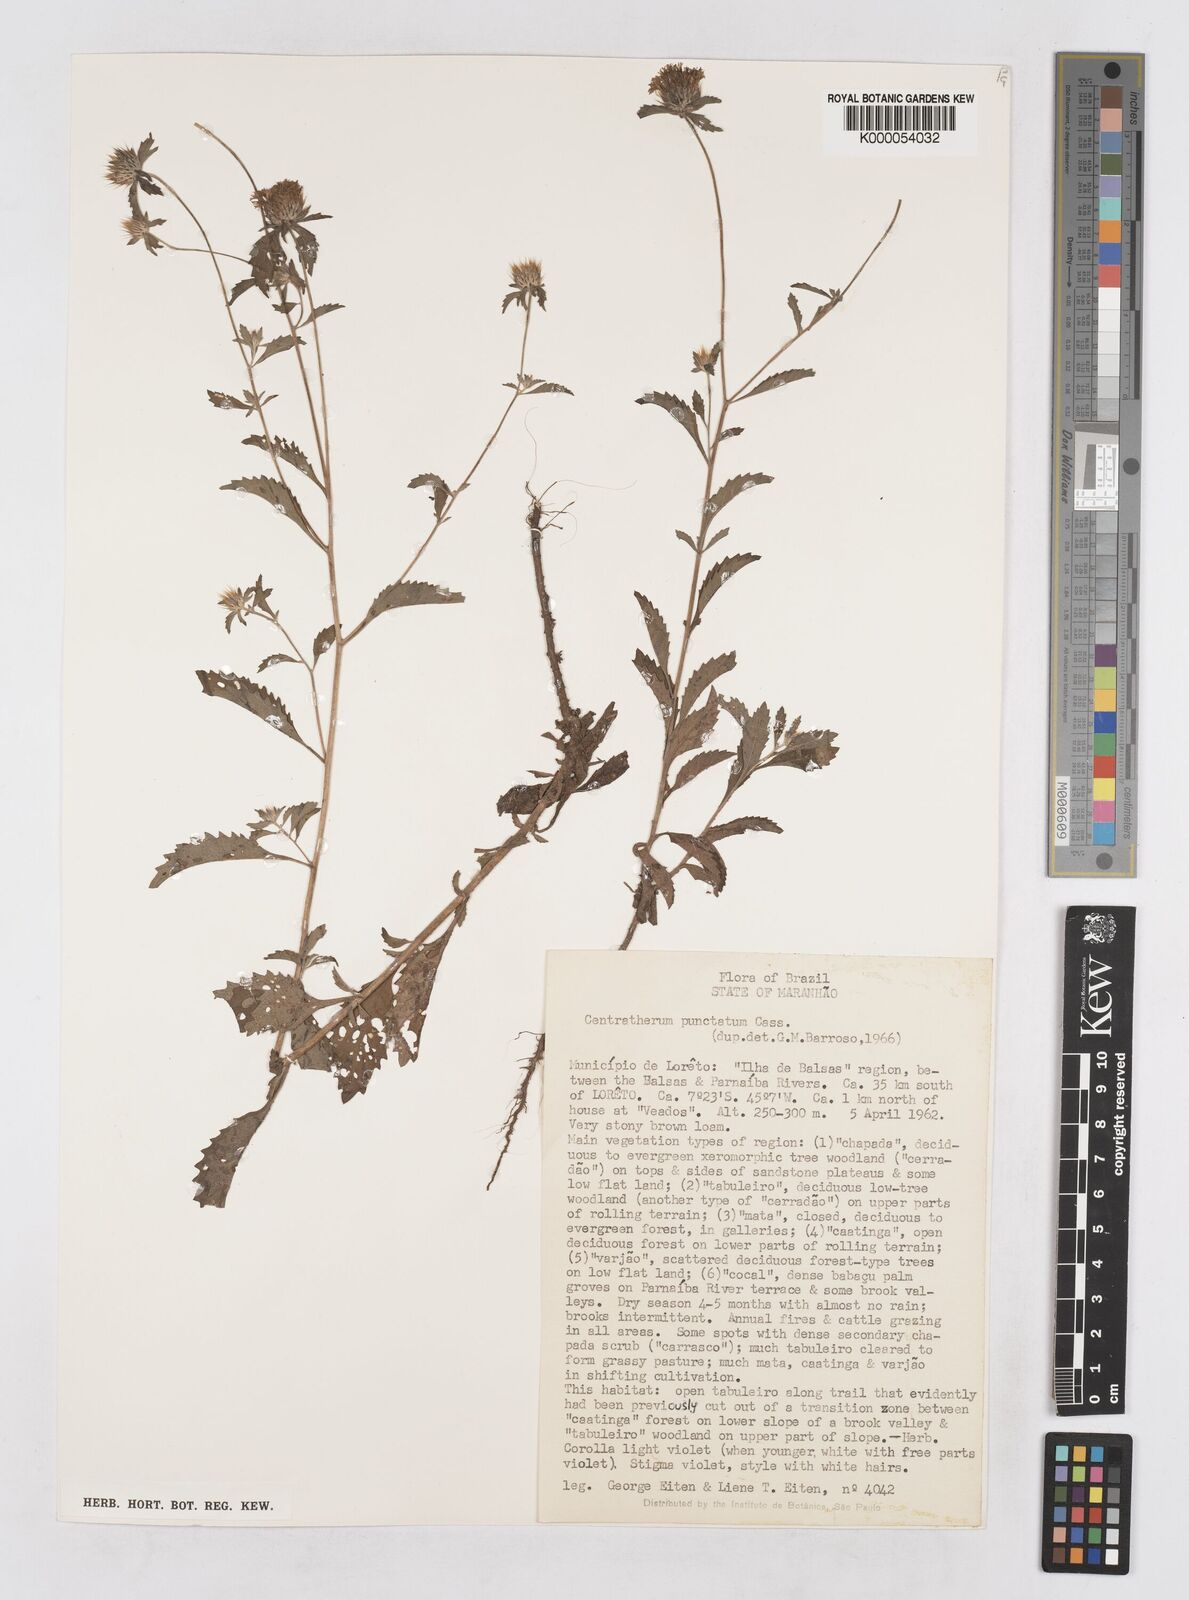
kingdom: Plantae
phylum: Tracheophyta
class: Magnoliopsida
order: Asterales
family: Asteraceae
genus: Centratherum
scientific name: Centratherum punctatum
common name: Larkdaisy
